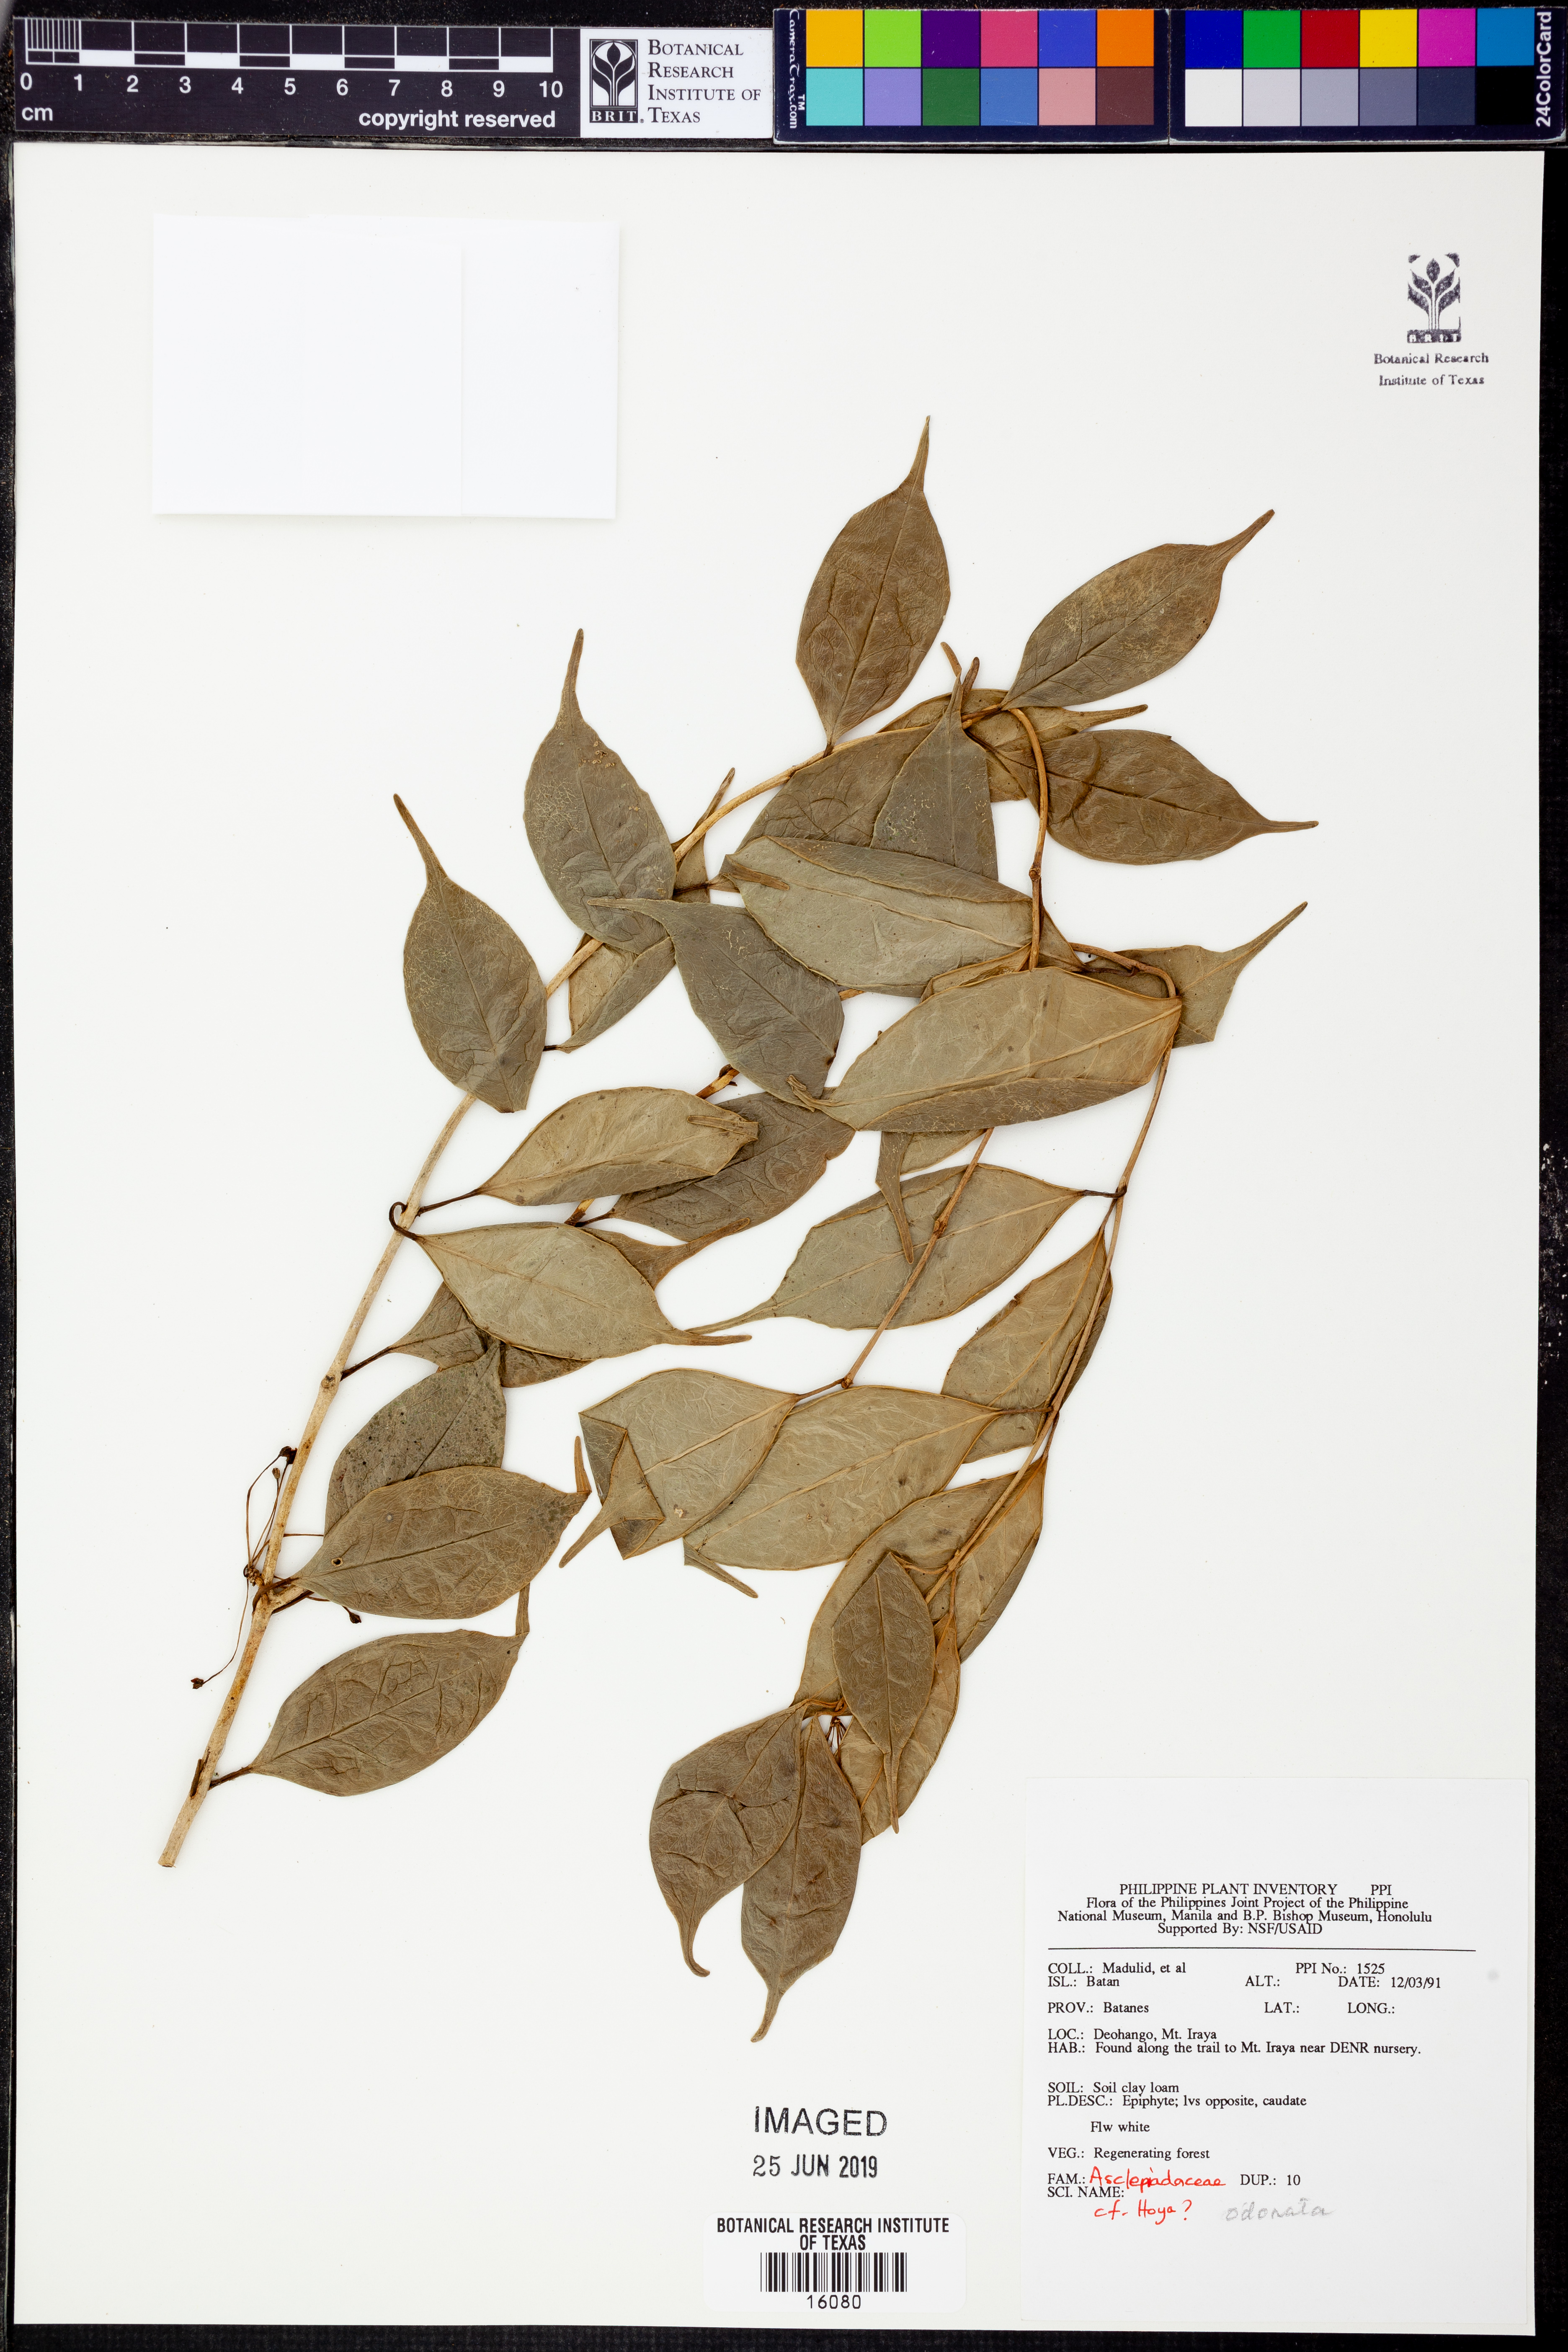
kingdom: Plantae
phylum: Tracheophyta
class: Magnoliopsida
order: Gentianales
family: Apocynaceae
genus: Hoya
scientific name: Hoya odorata
